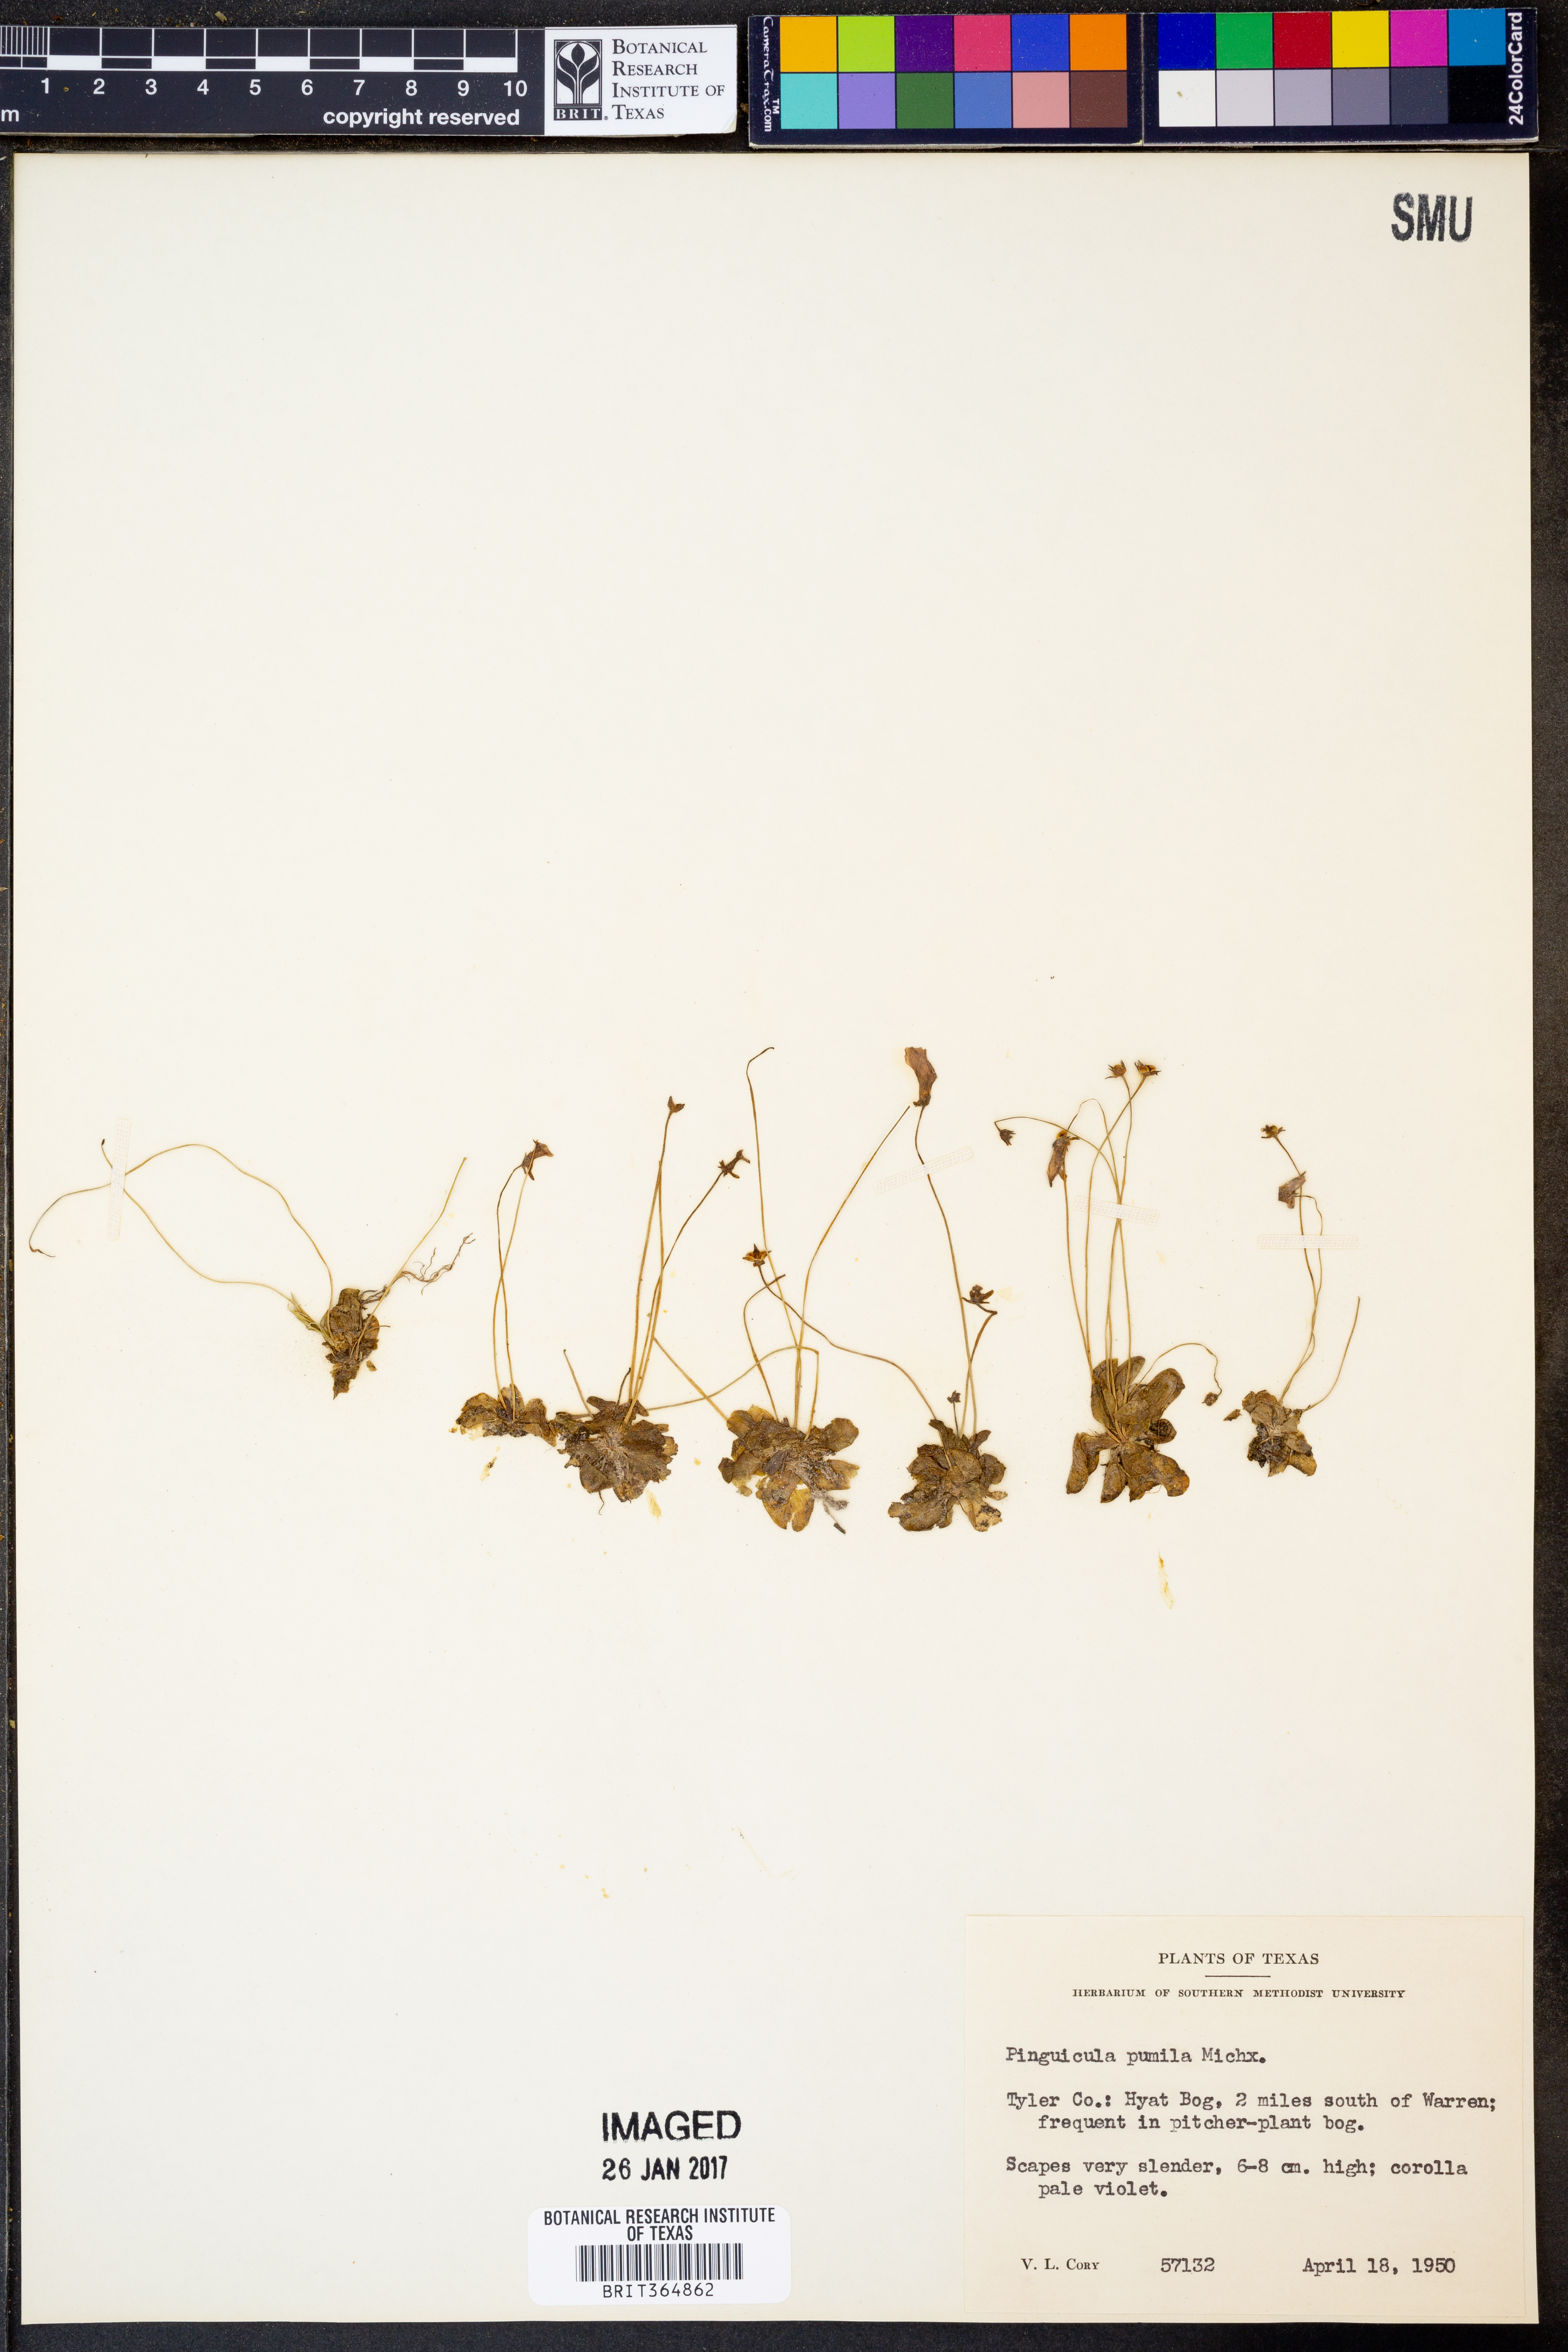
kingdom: Plantae
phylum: Tracheophyta
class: Magnoliopsida
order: Lamiales
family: Lentibulariaceae
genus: Pinguicula
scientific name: Pinguicula pumila
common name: Small butterwort
